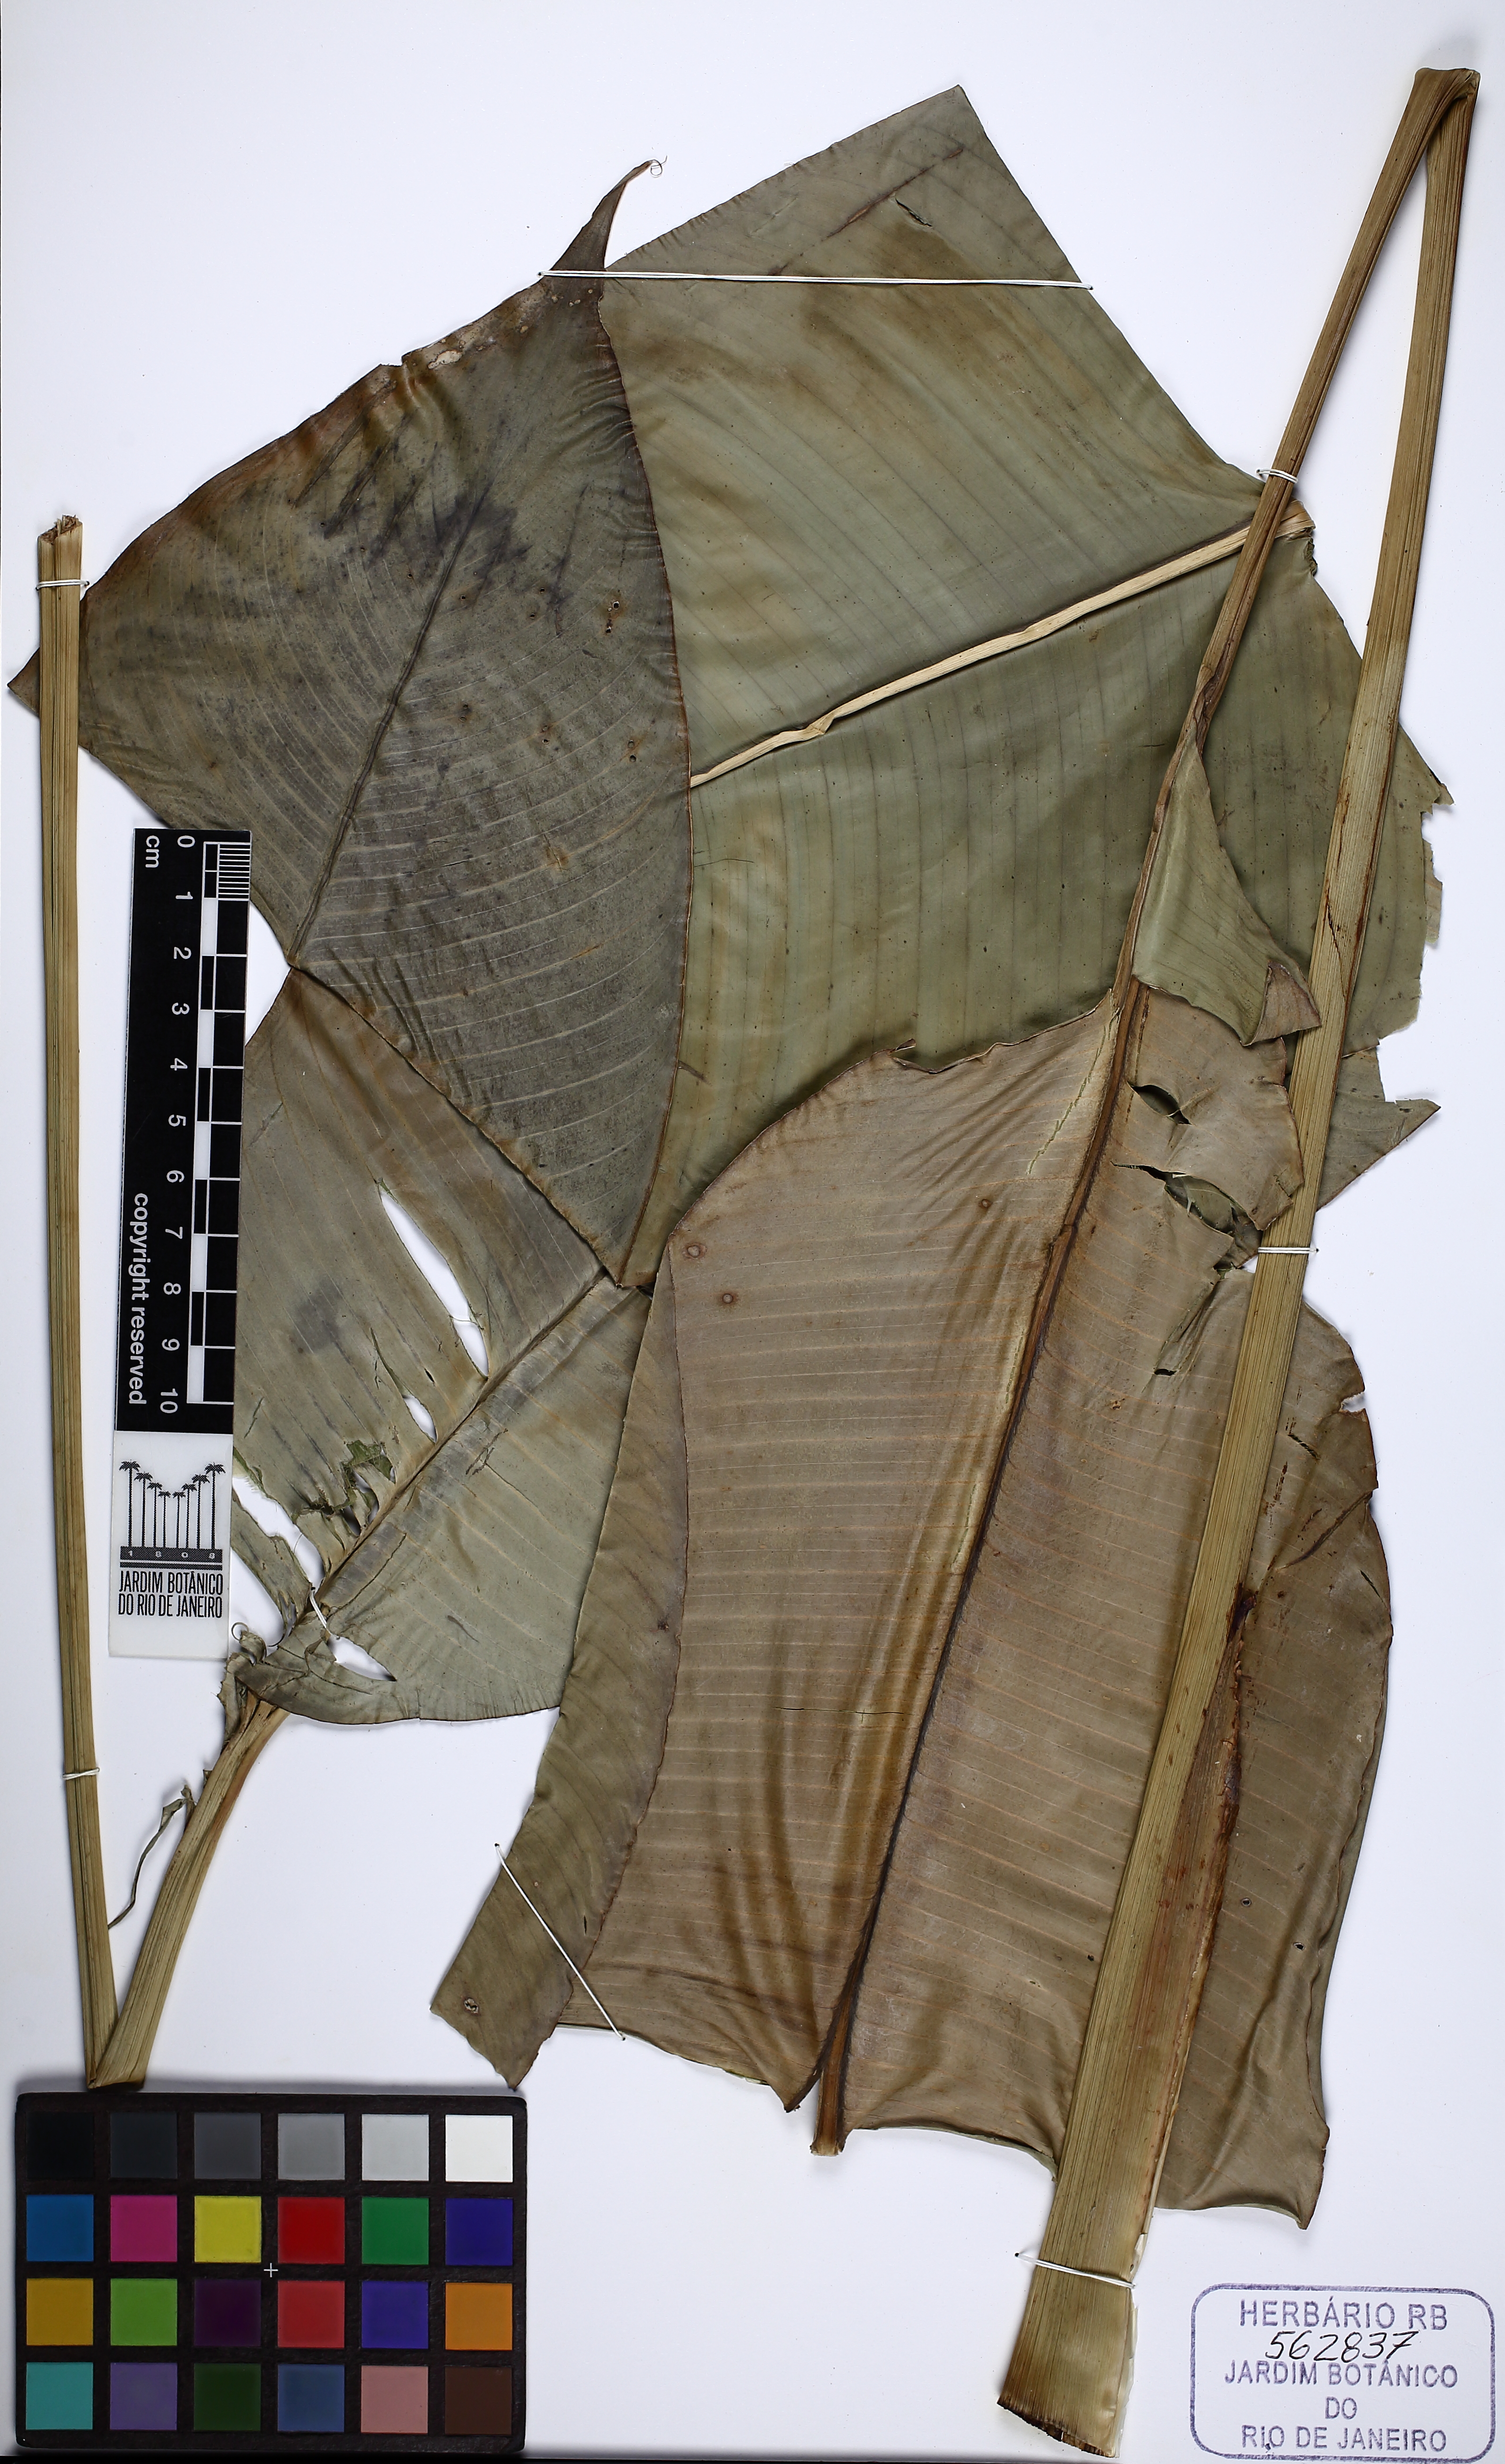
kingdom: Plantae
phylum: Tracheophyta
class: Liliopsida
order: Zingiberales
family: Heliconiaceae
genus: Heliconia
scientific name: Heliconia
